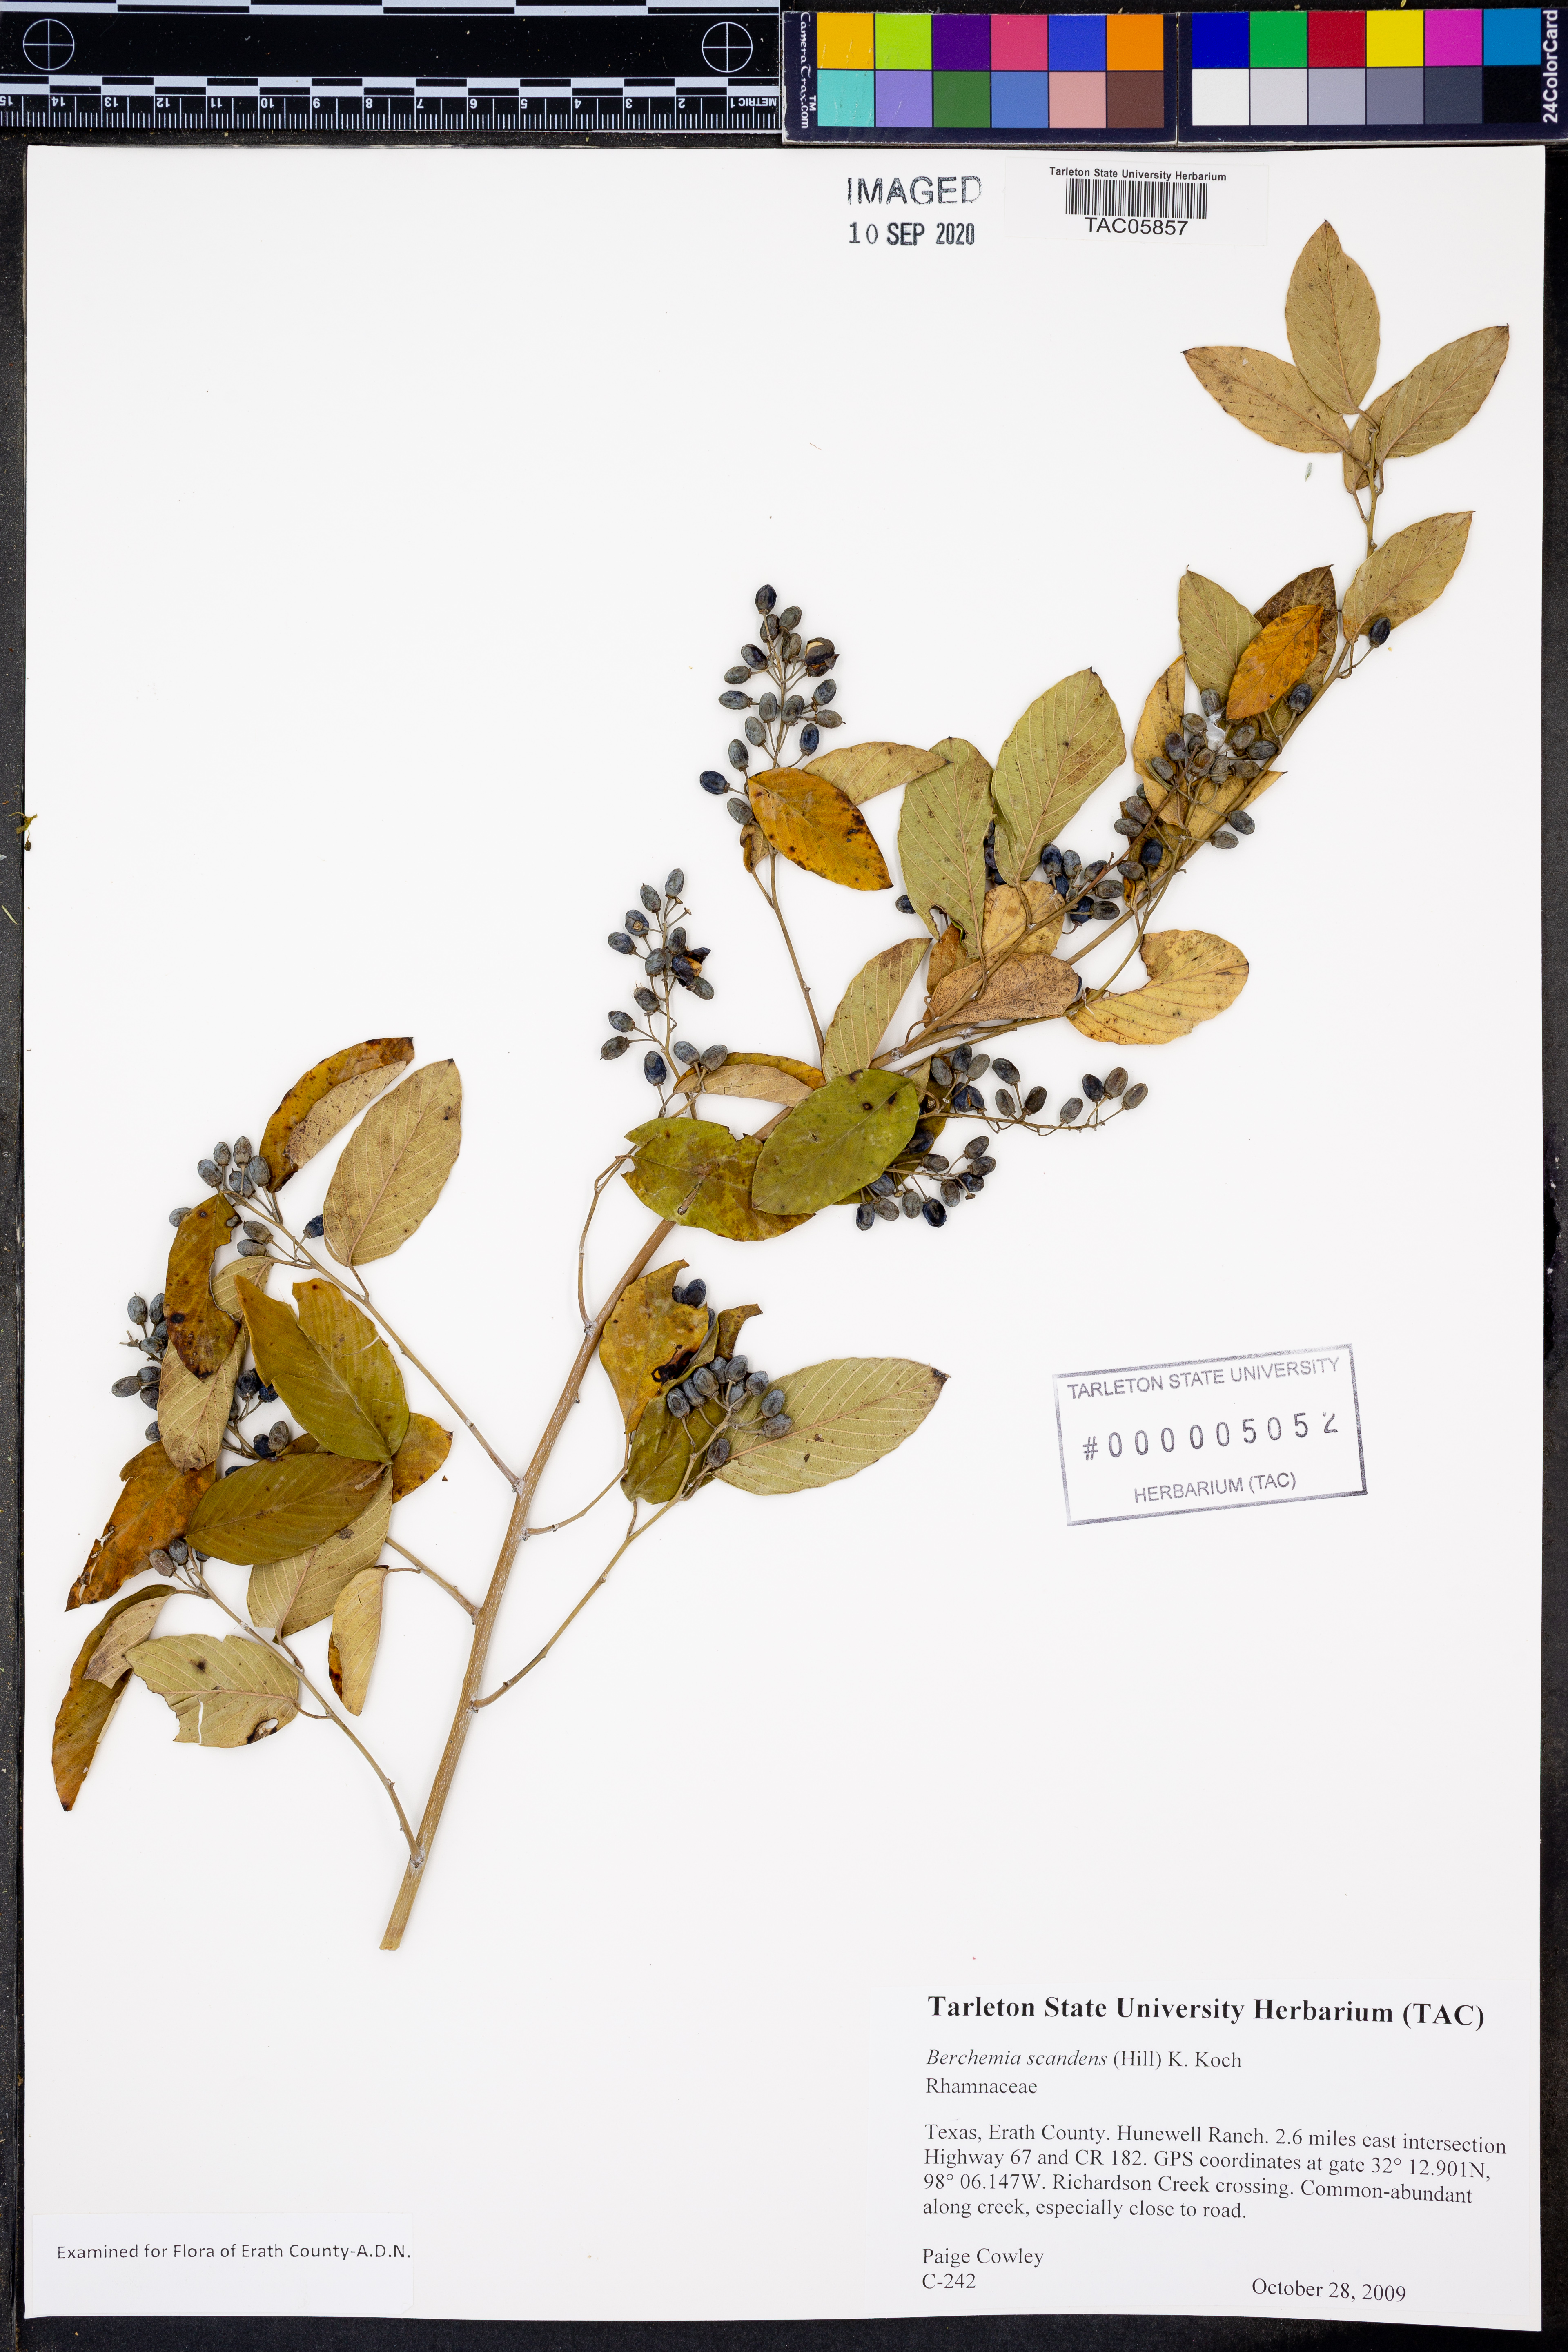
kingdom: Plantae
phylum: Tracheophyta
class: Magnoliopsida
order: Rosales
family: Rhamnaceae
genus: Berchemia
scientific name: Berchemia scandens
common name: Supplejack
